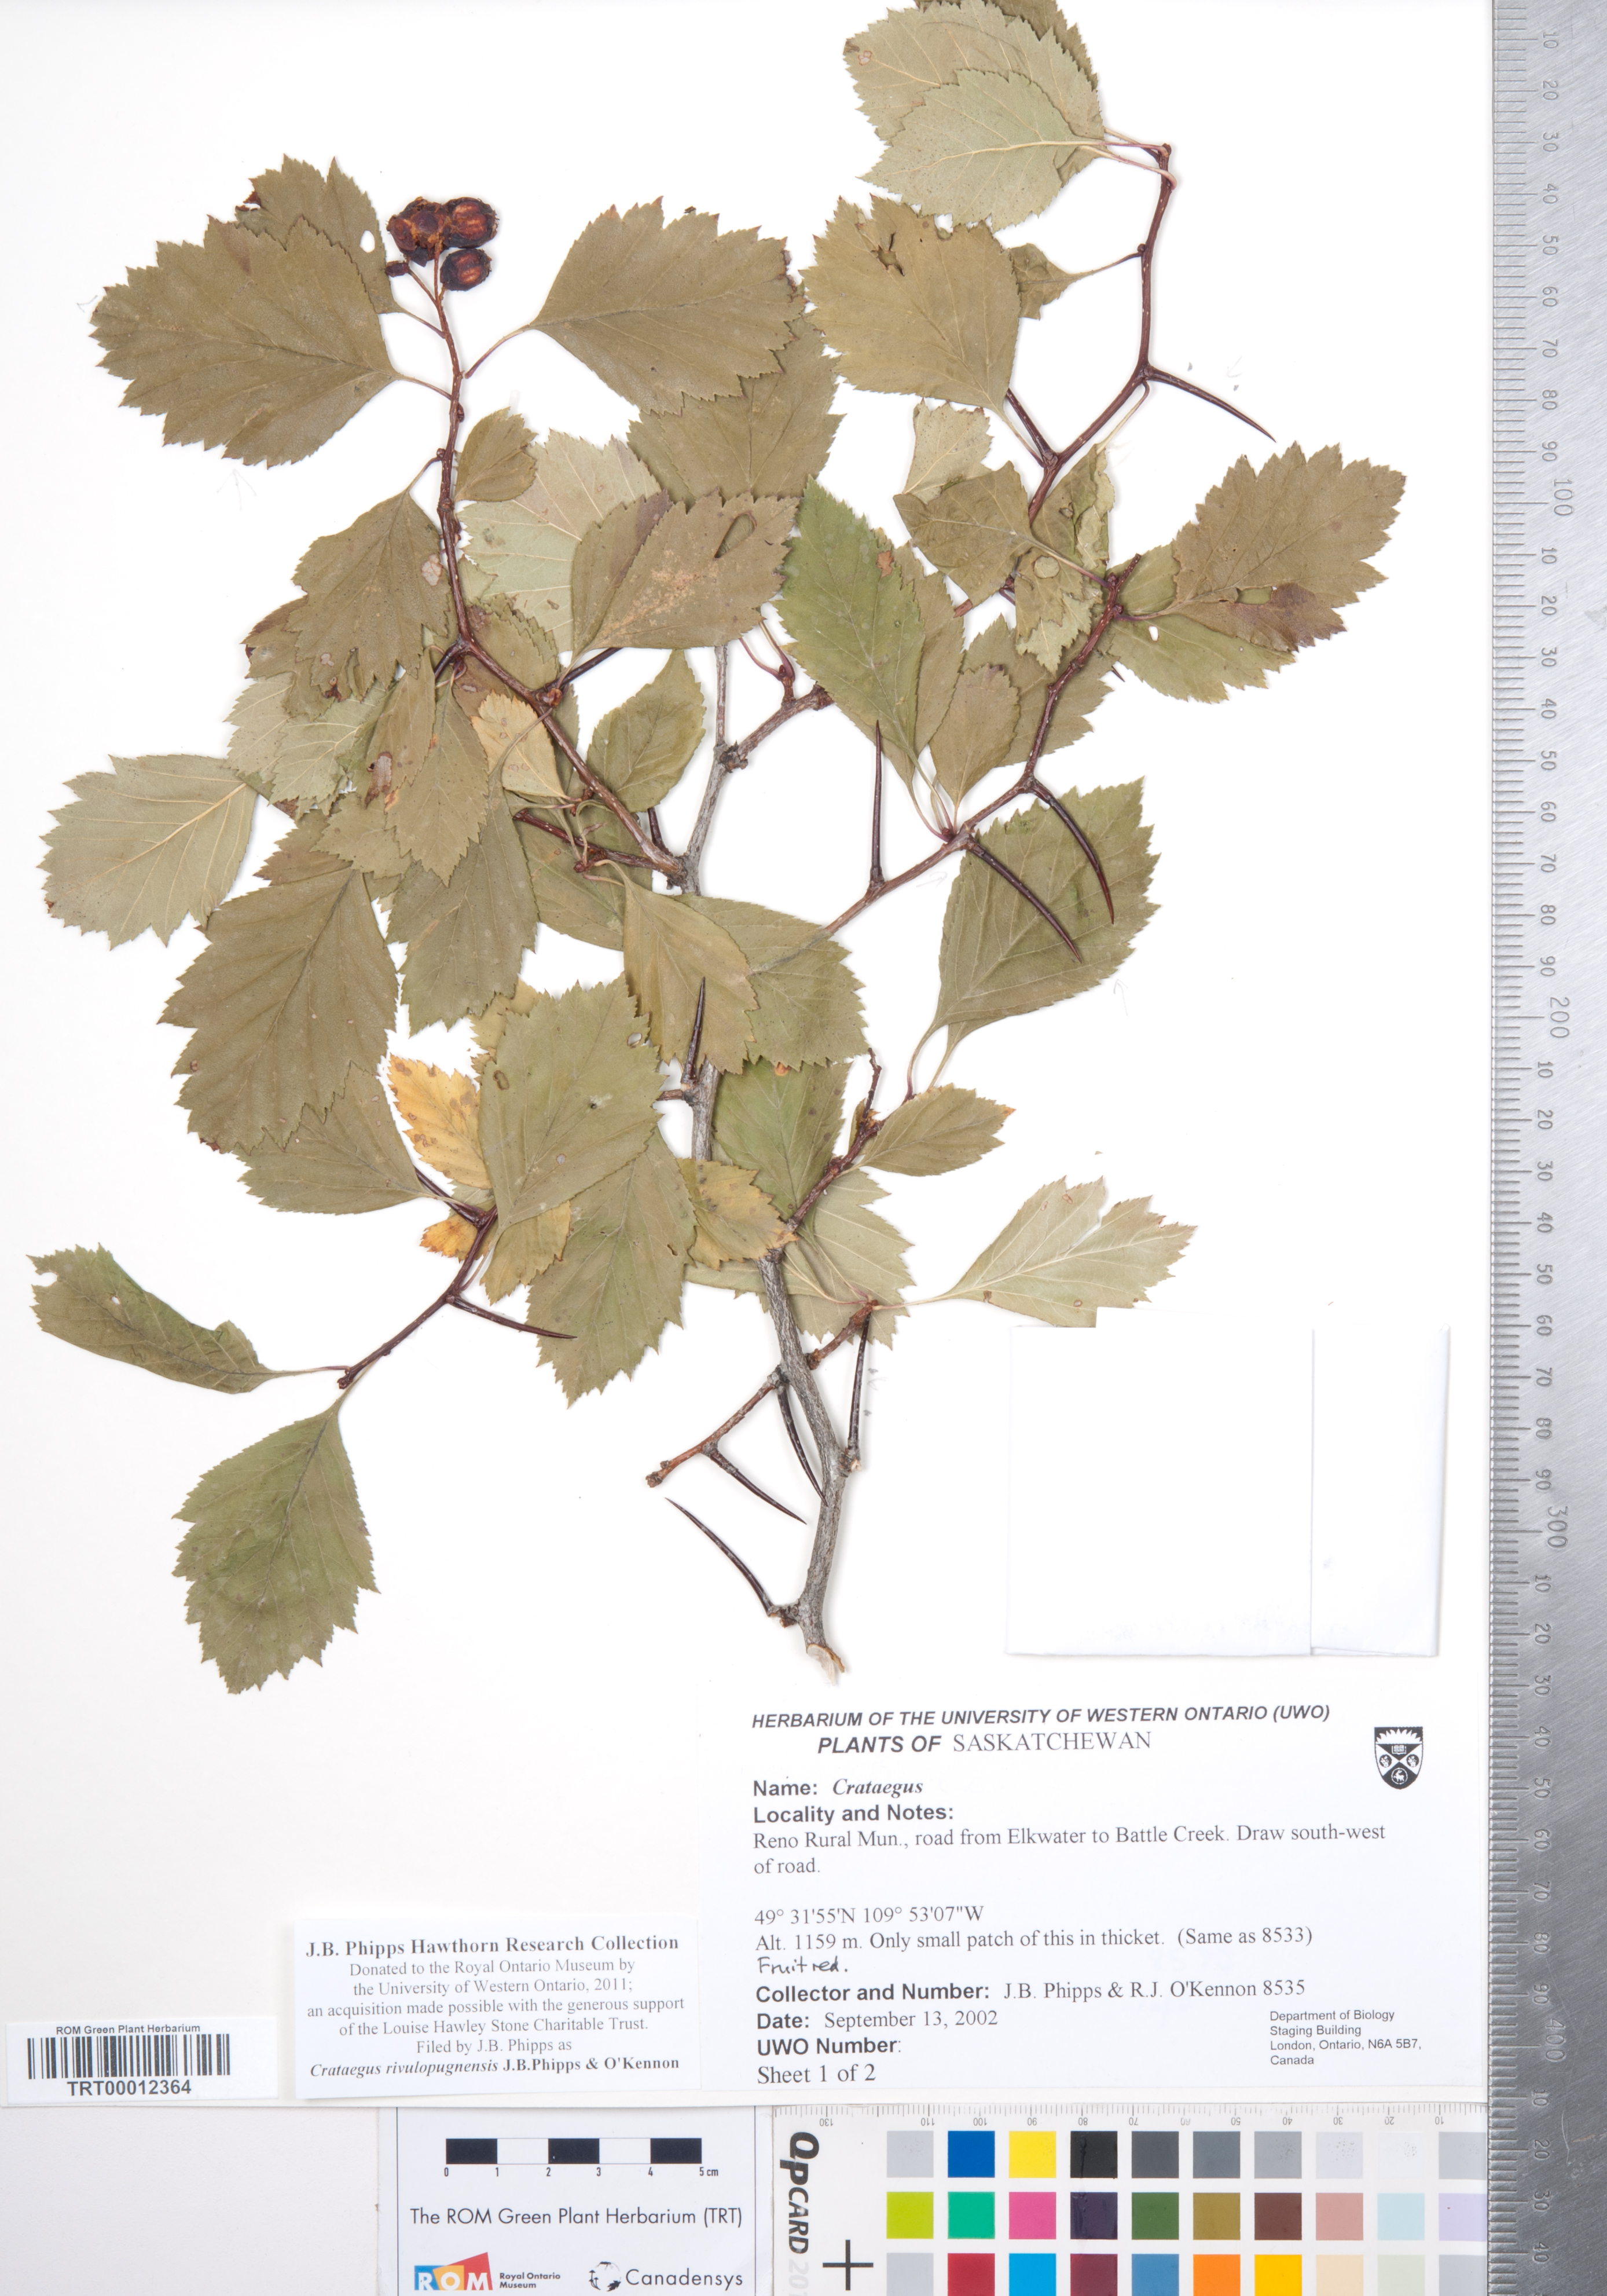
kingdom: Plantae
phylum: Tracheophyta
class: Magnoliopsida
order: Rosales
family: Rosaceae
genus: Crataegus
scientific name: Crataegus rivulopugnensis
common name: Battle creek hawthorn
